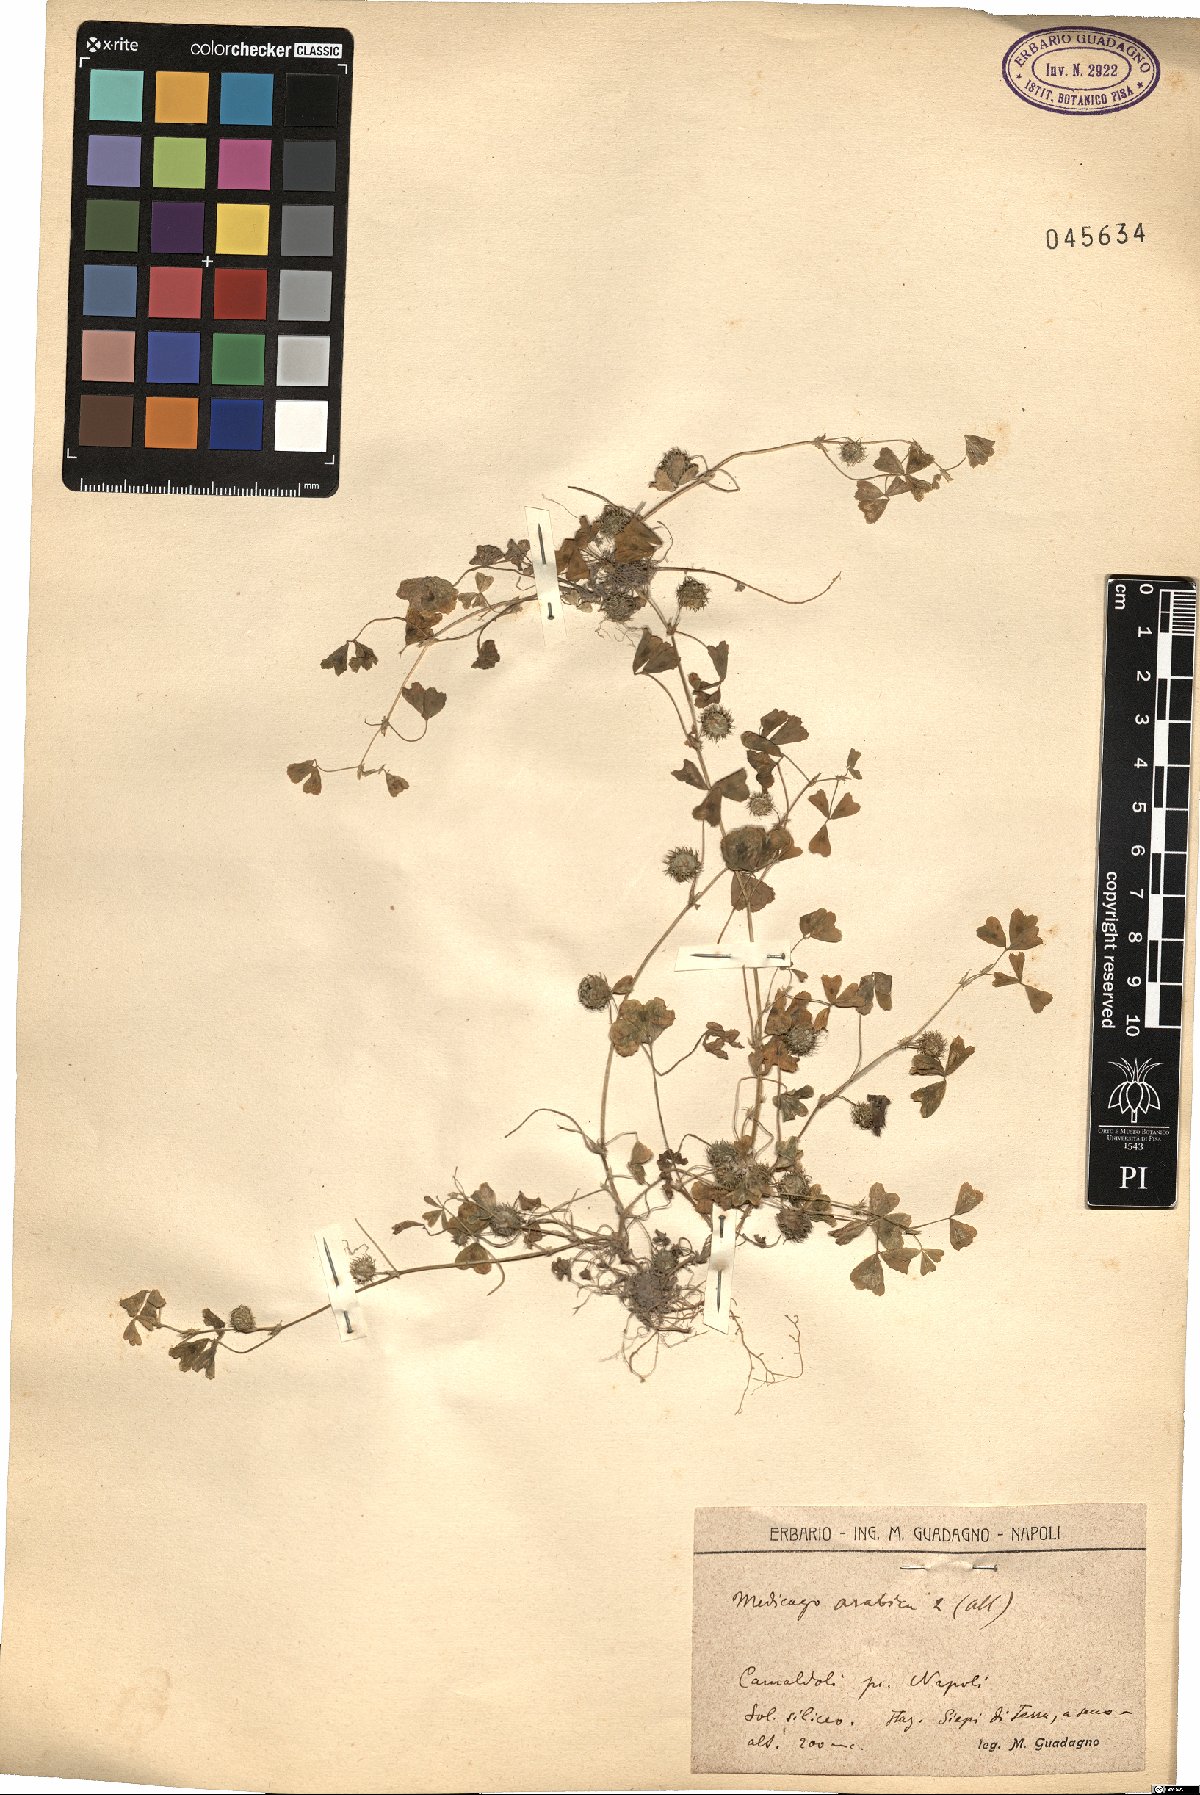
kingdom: Plantae
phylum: Tracheophyta
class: Magnoliopsida
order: Fabales
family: Fabaceae
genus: Medicago
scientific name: Medicago arabica
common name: Spotted medick
